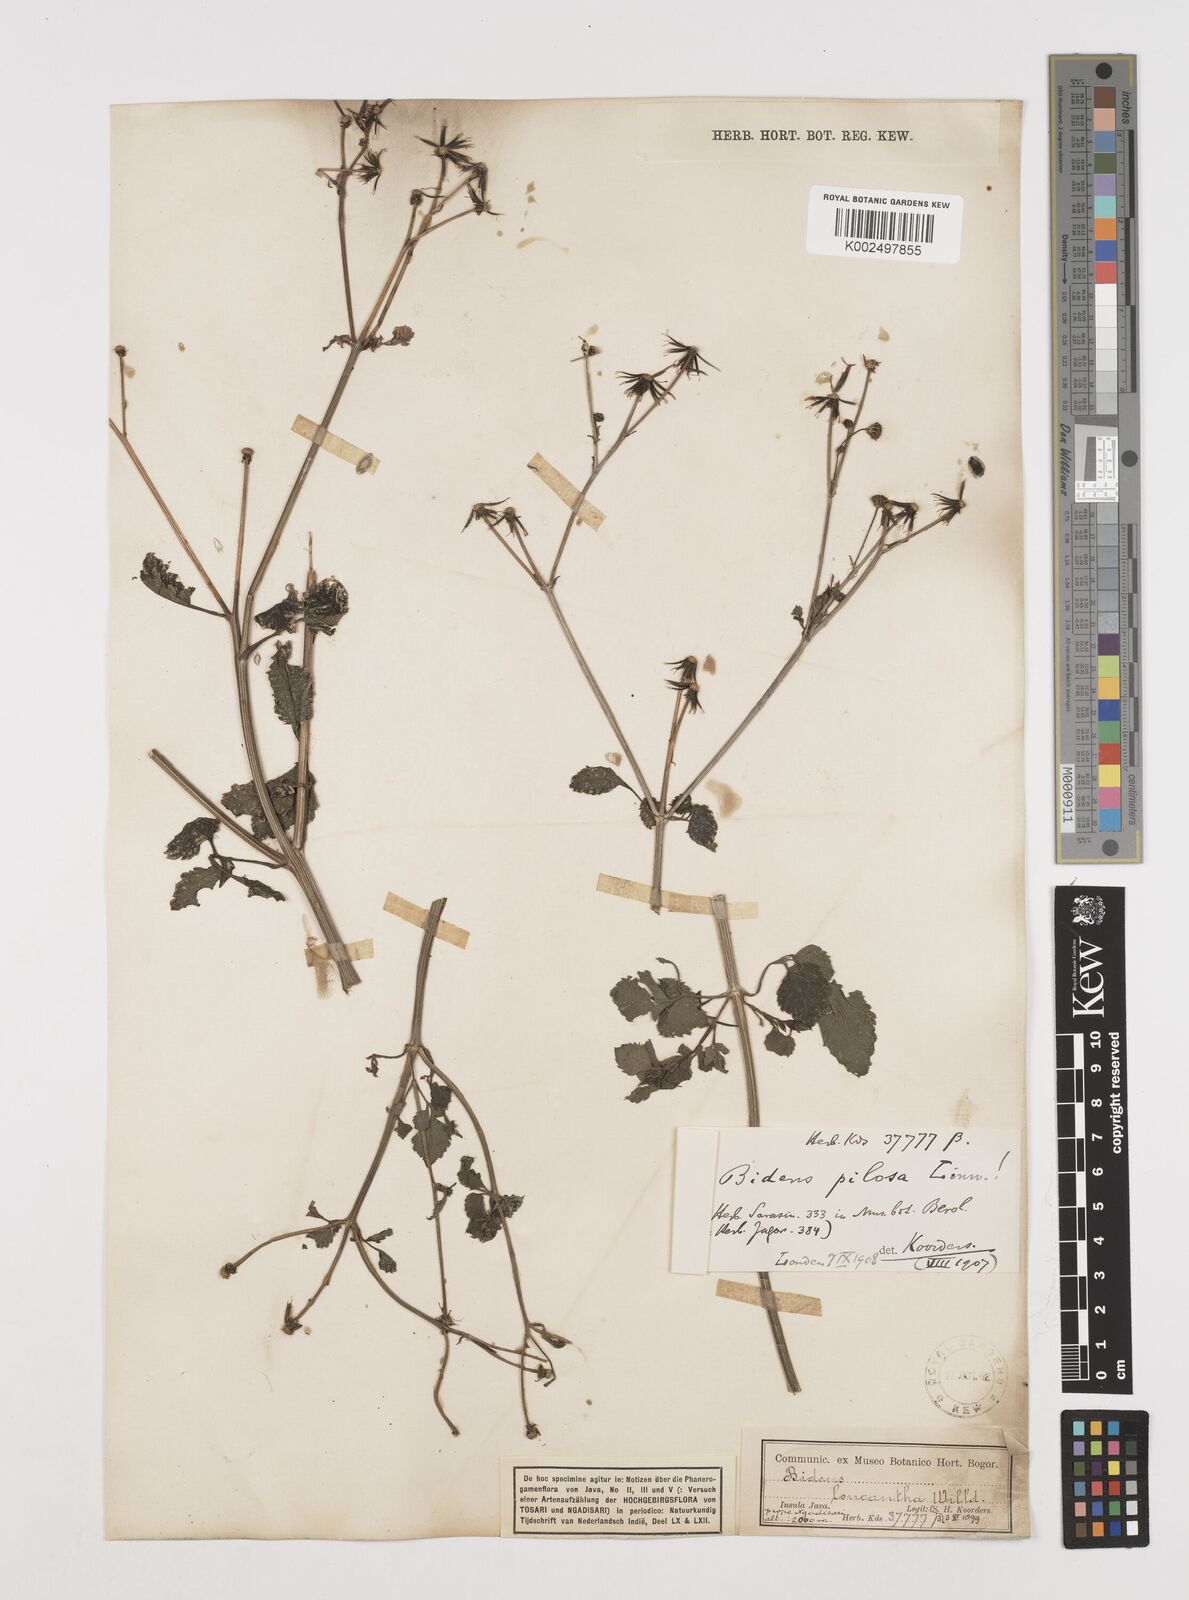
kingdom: Plantae
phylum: Tracheophyta
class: Magnoliopsida
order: Asterales
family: Asteraceae
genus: Bidens
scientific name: Bidens biternata
